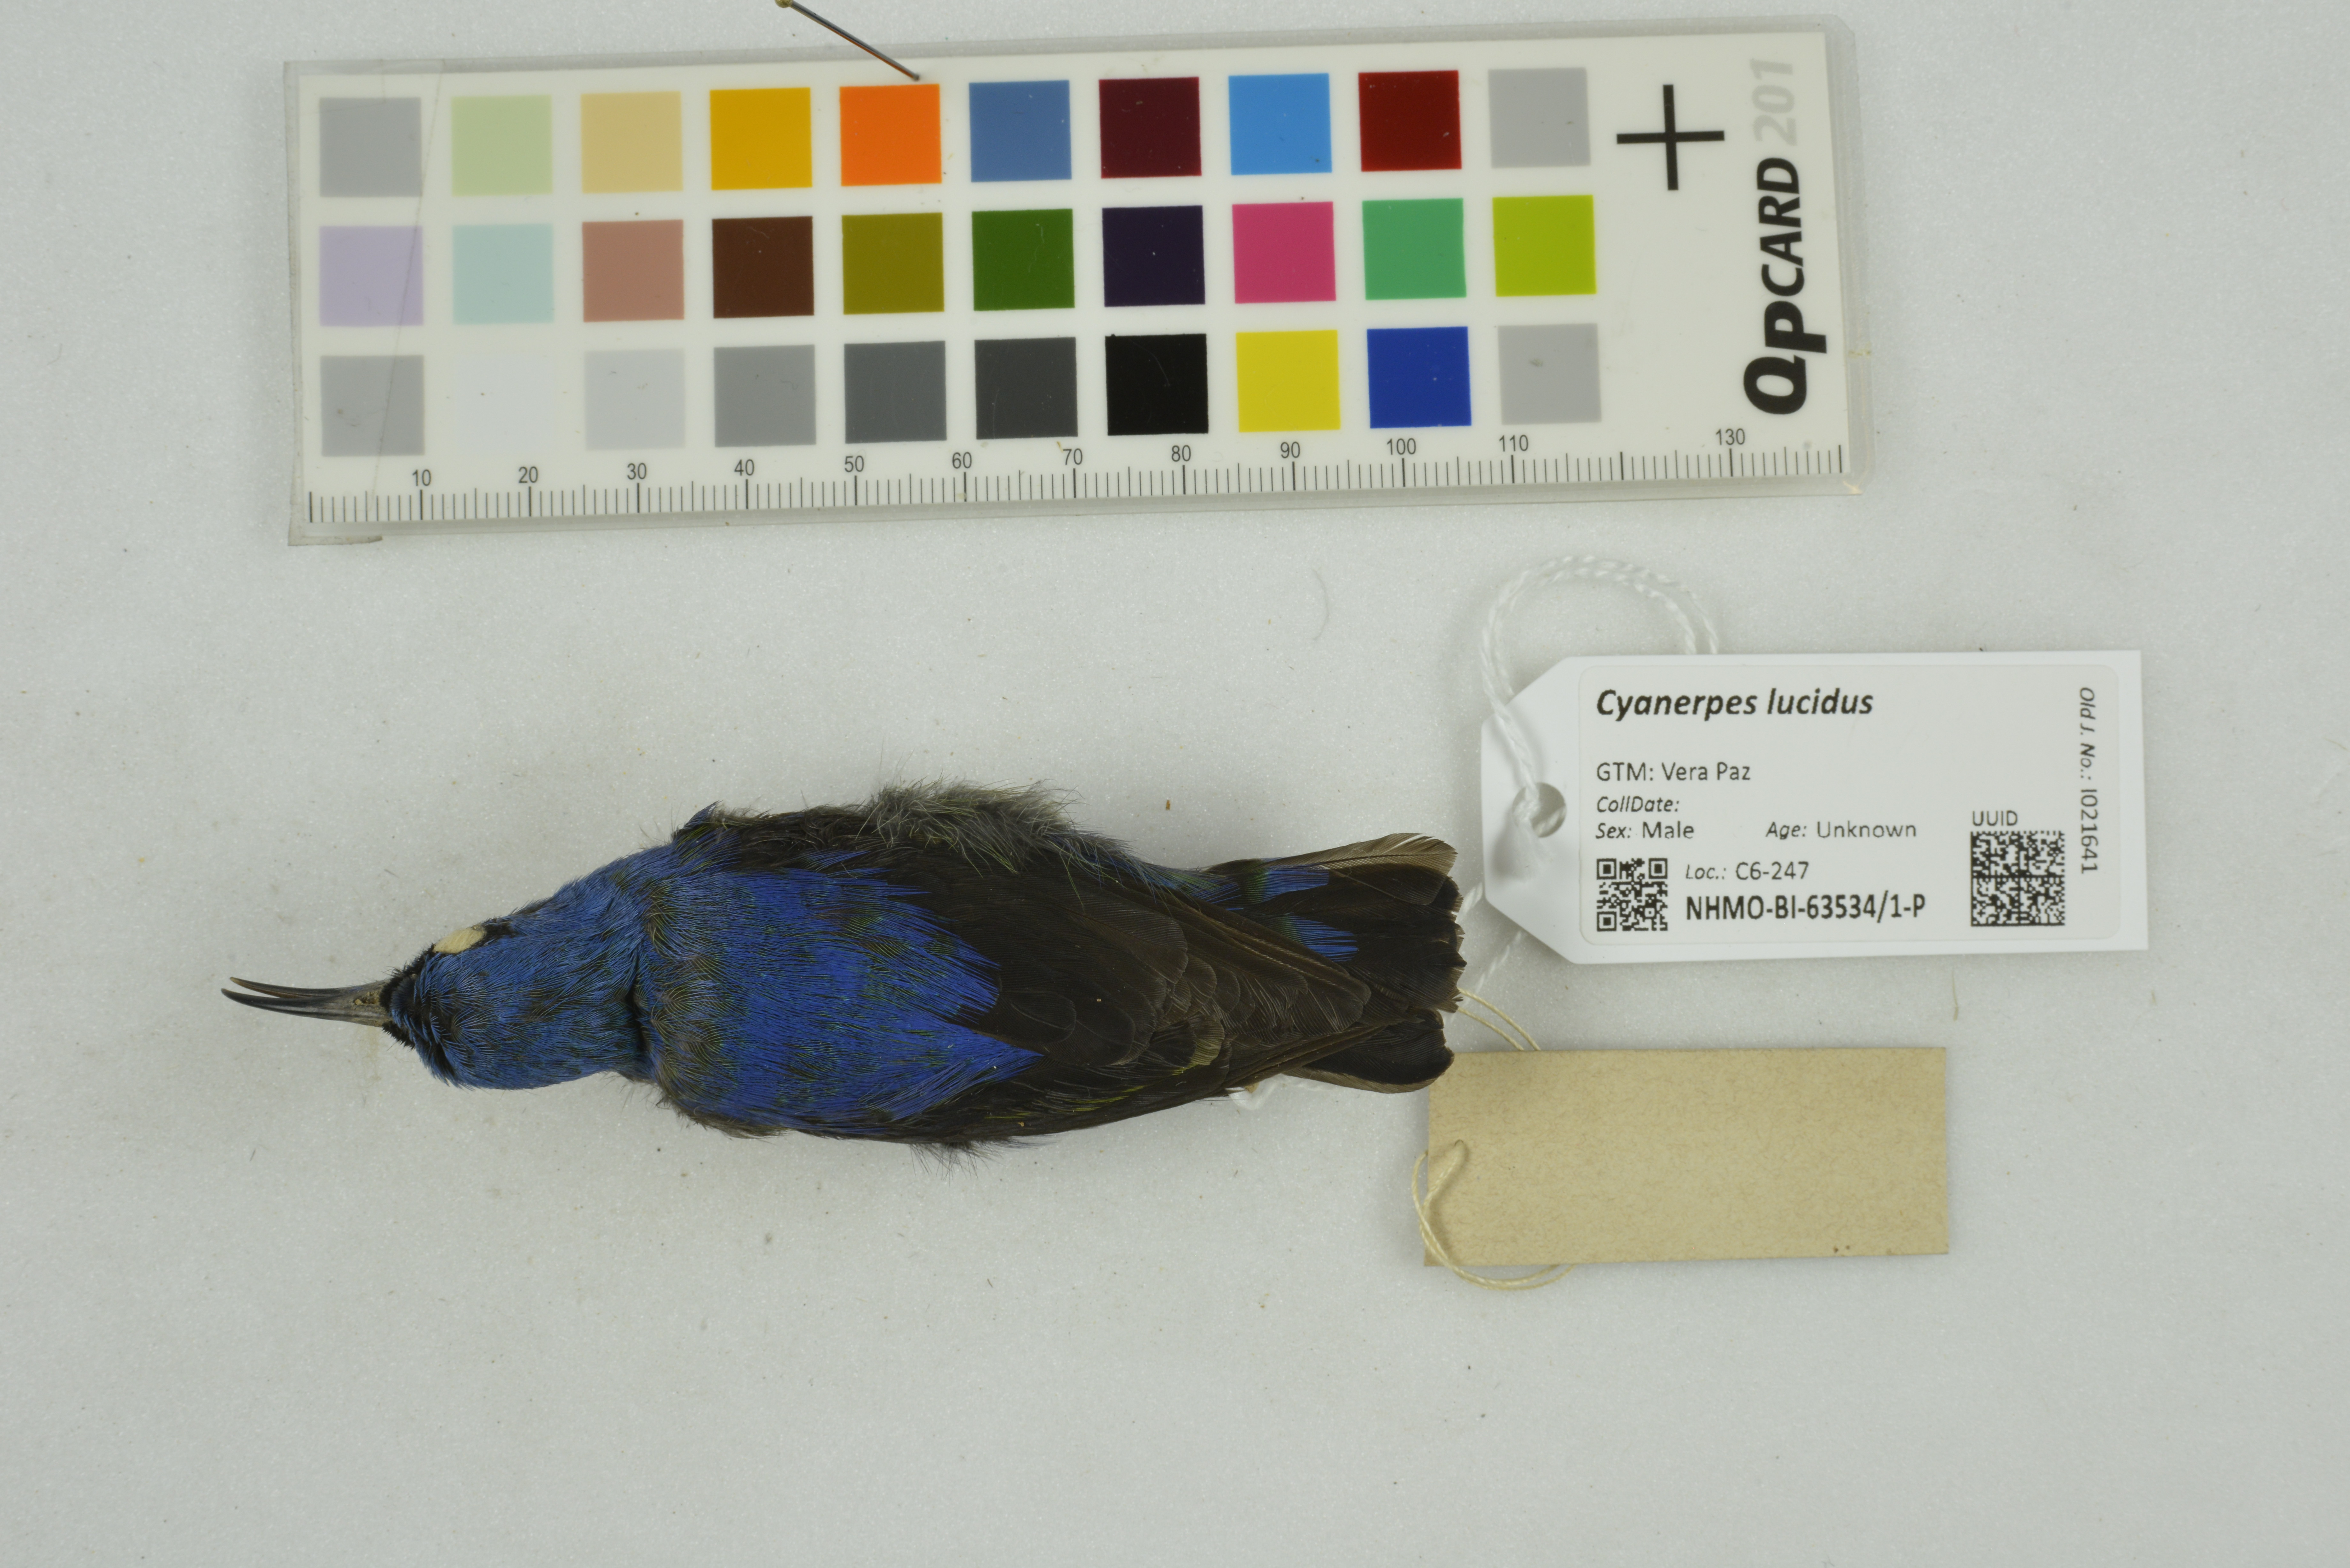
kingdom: Animalia
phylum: Chordata
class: Aves
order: Passeriformes
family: Thraupidae
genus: Cyanerpes
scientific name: Cyanerpes lucidus
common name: Shining honeycreeper
